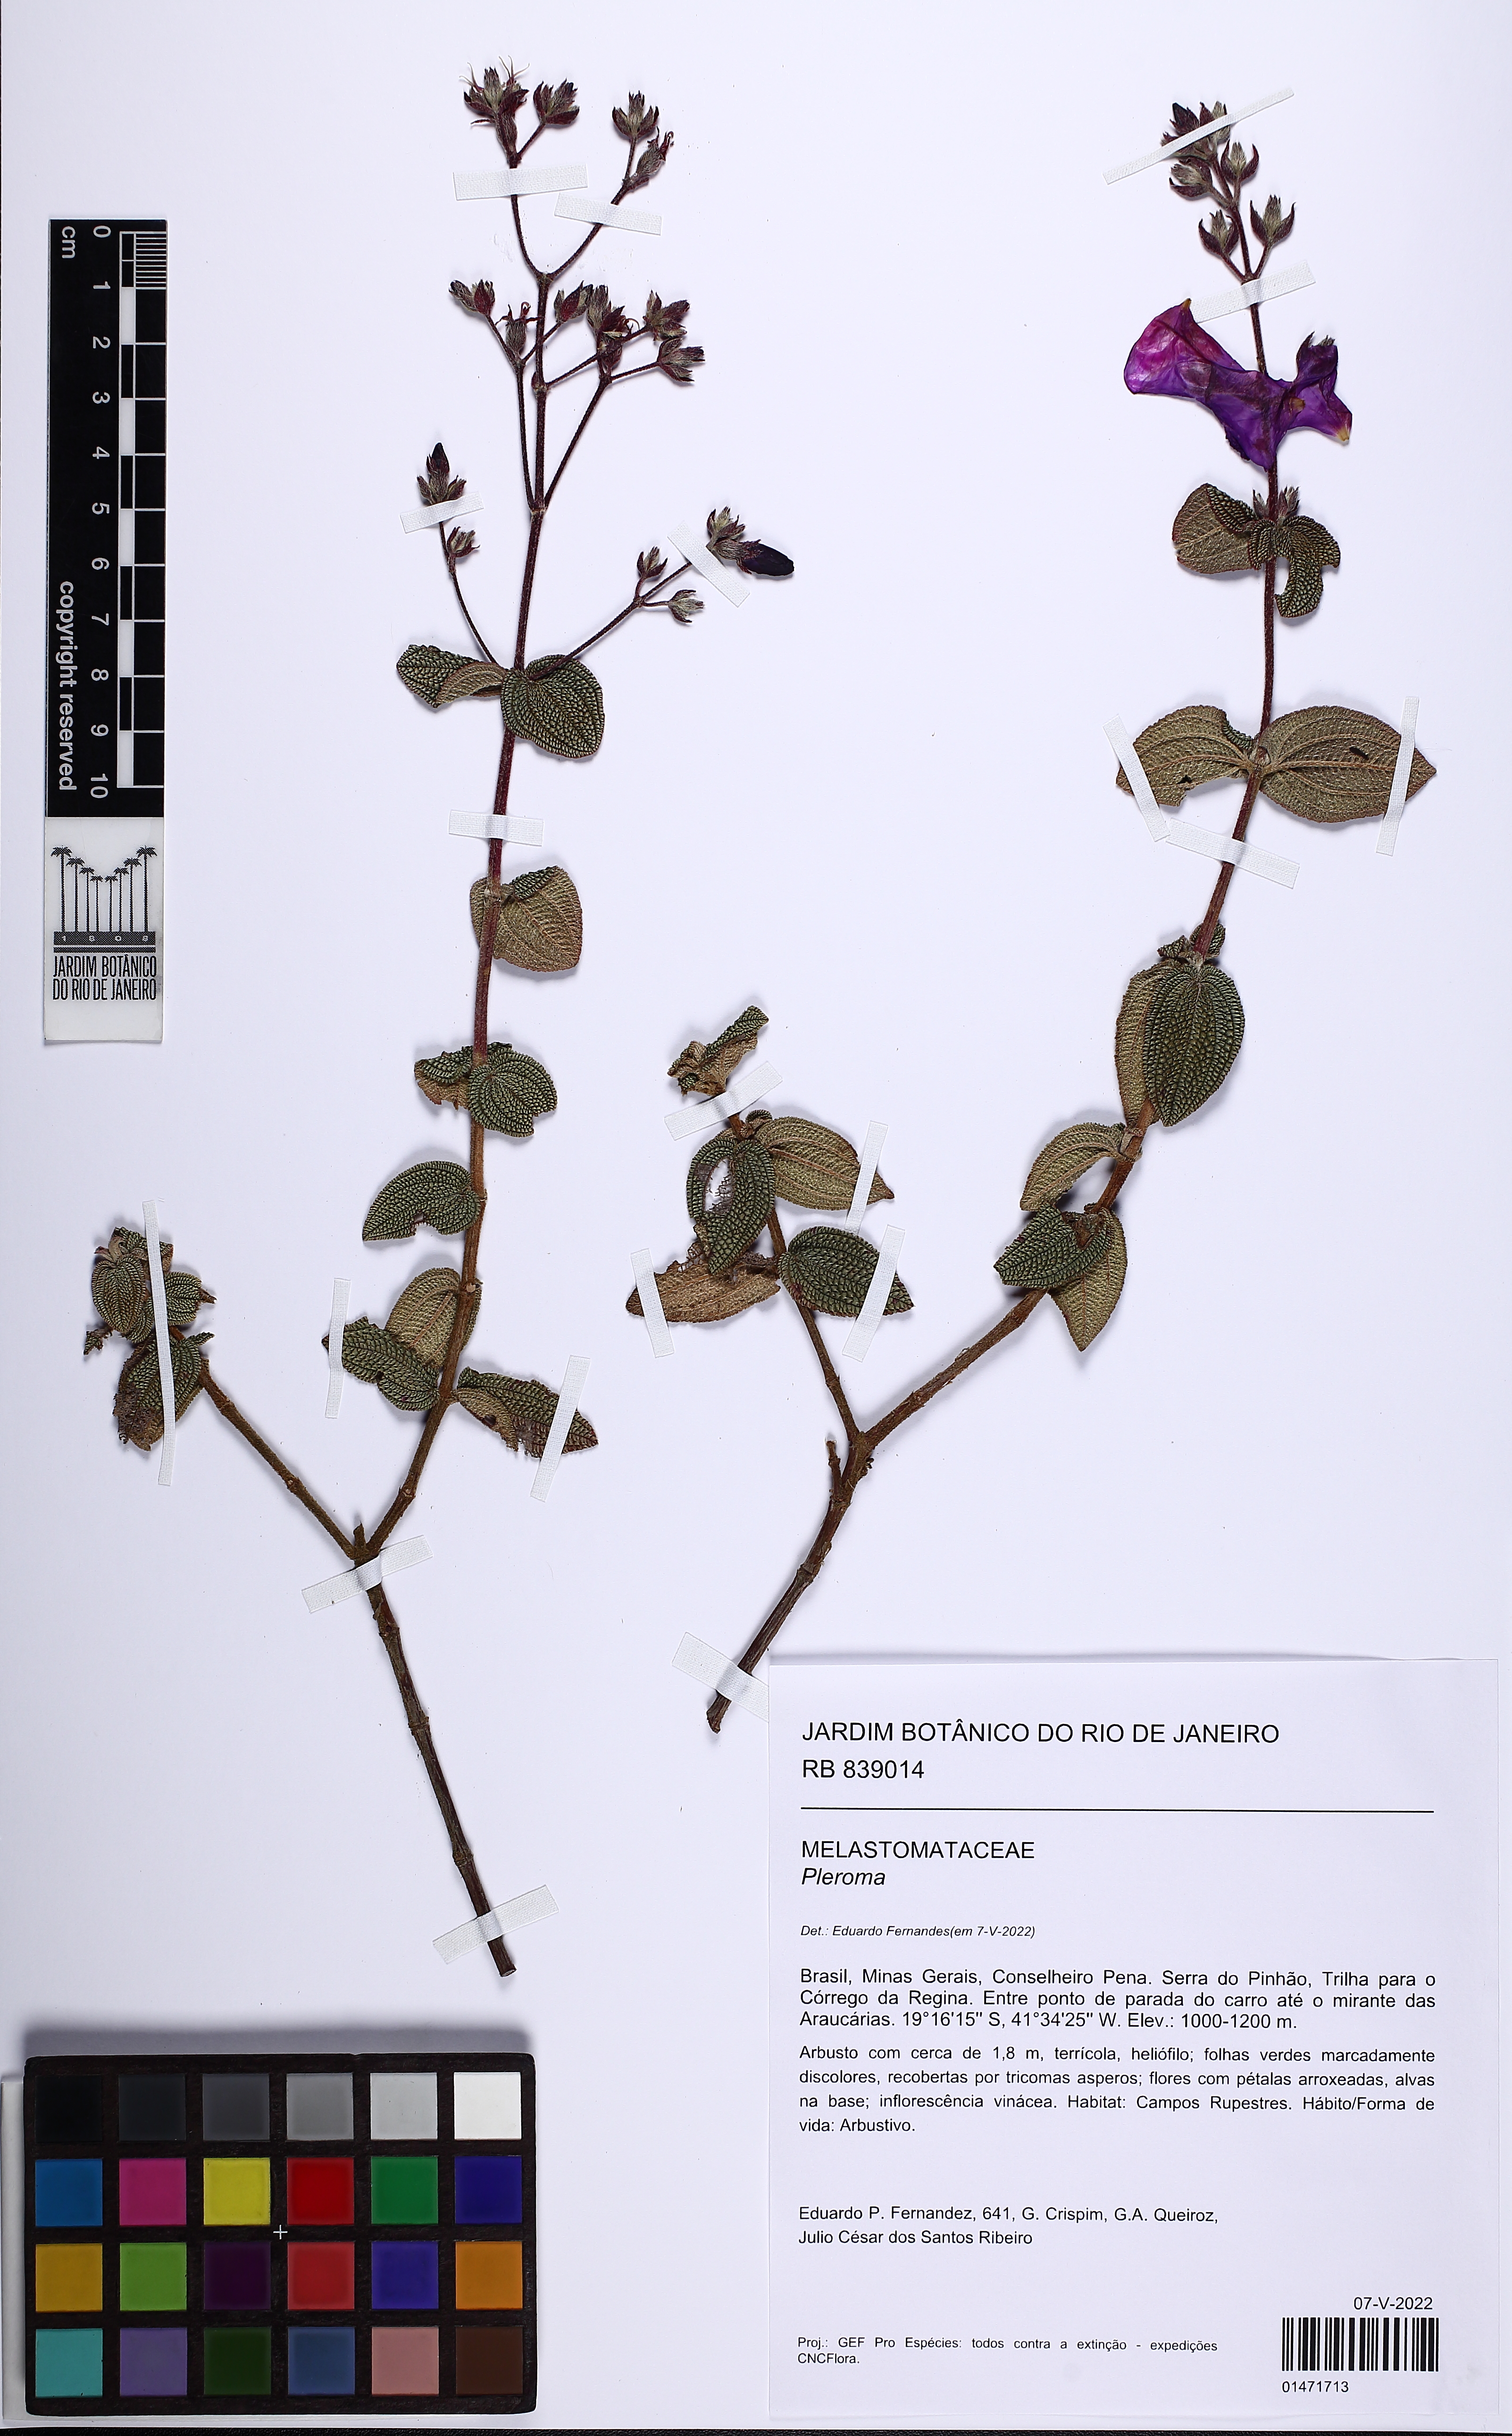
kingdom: Plantae
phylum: Tracheophyta
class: Magnoliopsida
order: Myrtales
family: Melastomataceae
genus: Pleroma
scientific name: Pleroma caetanoi
